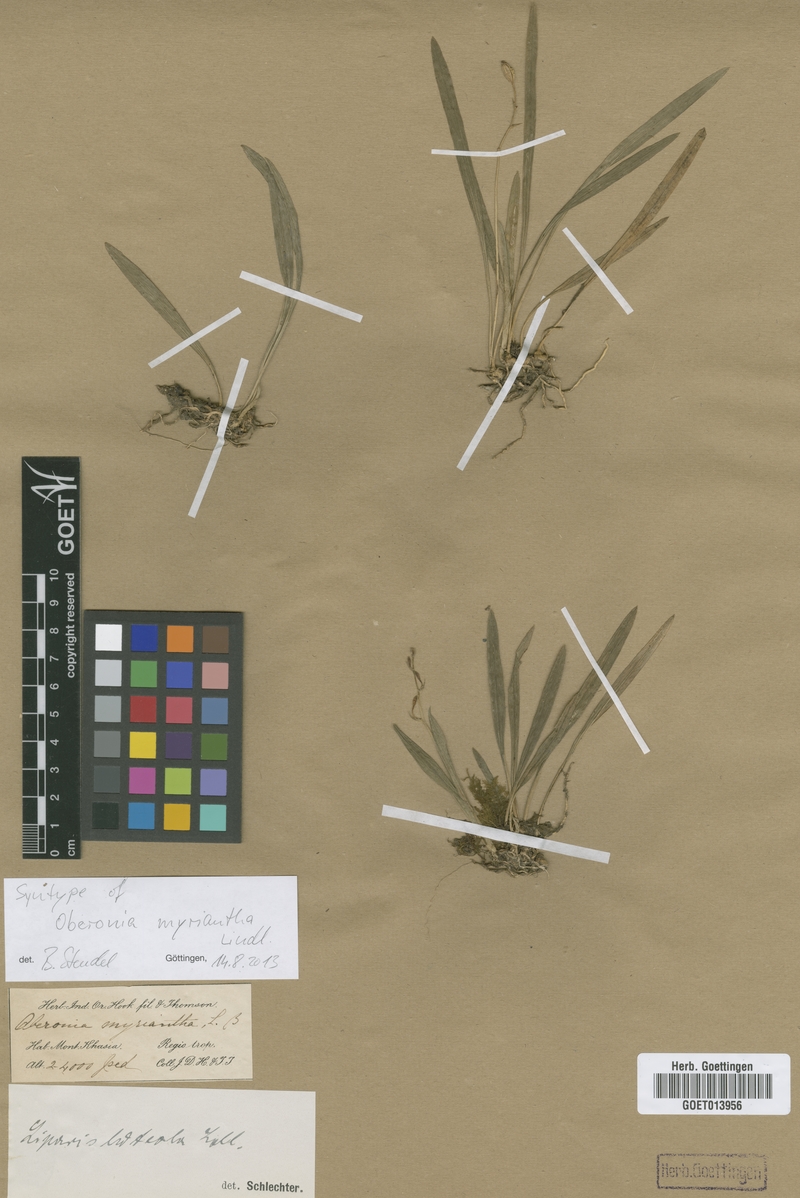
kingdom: Plantae
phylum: Tracheophyta
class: Liliopsida
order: Asparagales
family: Orchidaceae
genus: Oberonia
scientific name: Oberonia acaulis
